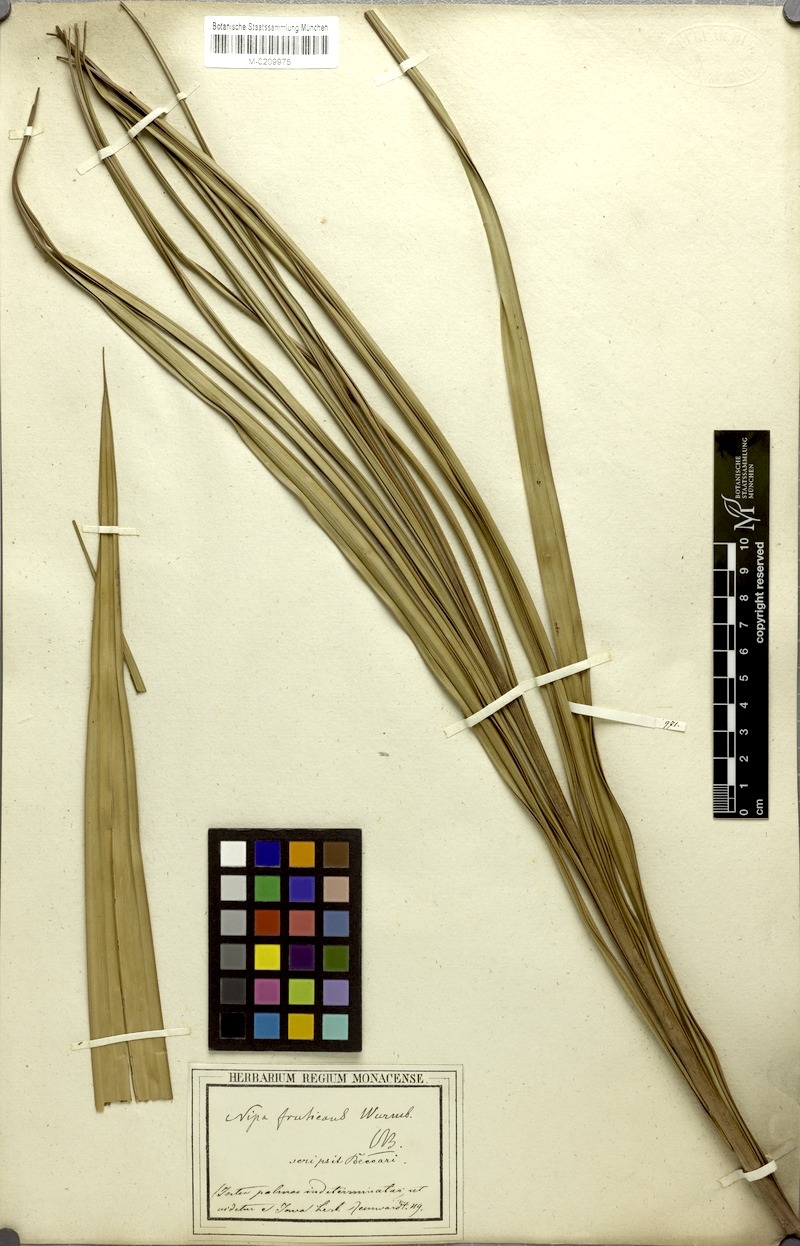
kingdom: Plantae
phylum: Tracheophyta
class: Liliopsida
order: Arecales
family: Arecaceae
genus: Nypa
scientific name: Nypa fruticans
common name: Mangrove palm
